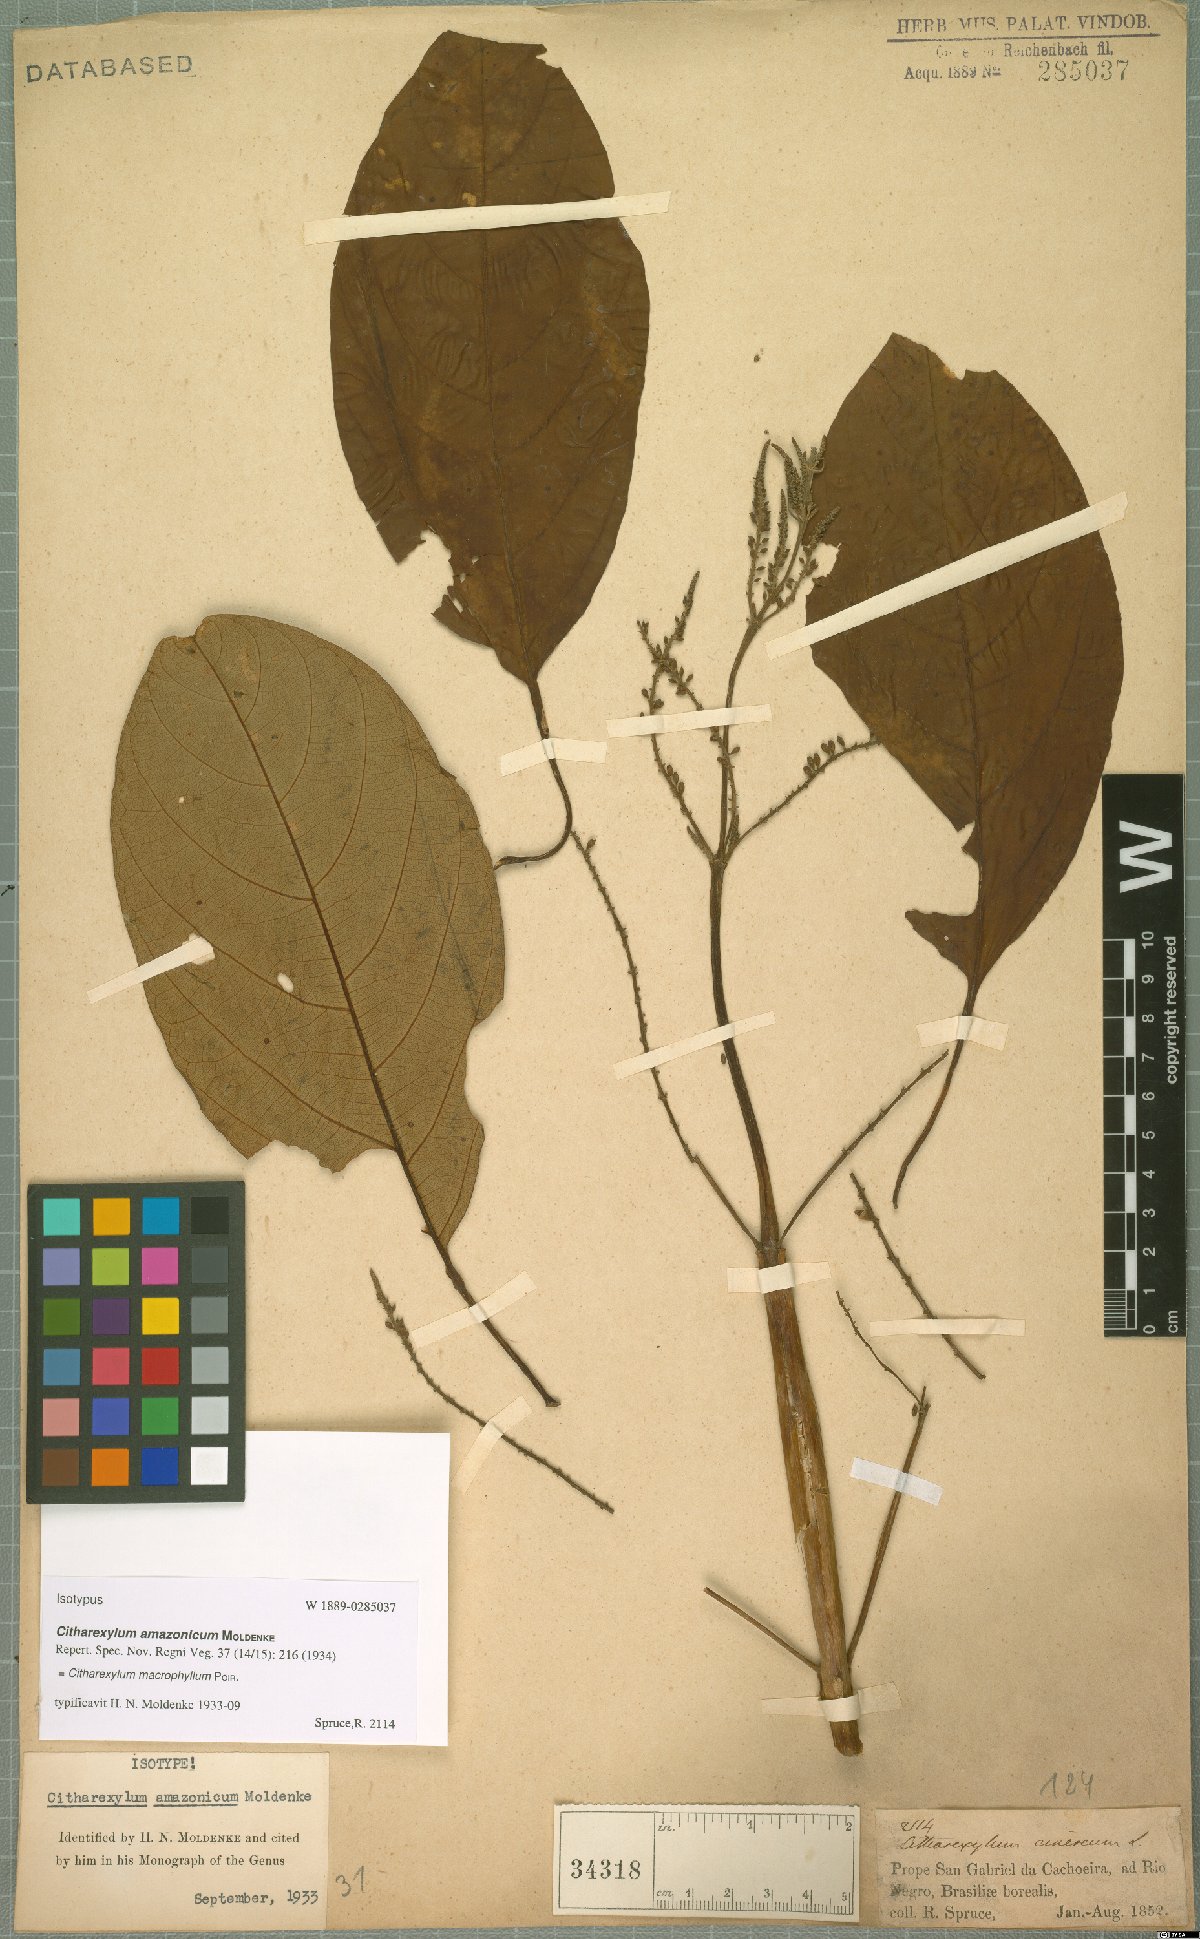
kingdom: Plantae
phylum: Tracheophyta
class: Magnoliopsida
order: Lamiales
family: Verbenaceae
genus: Citharexylum
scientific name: Citharexylum spinosum
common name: Fiddlewood
